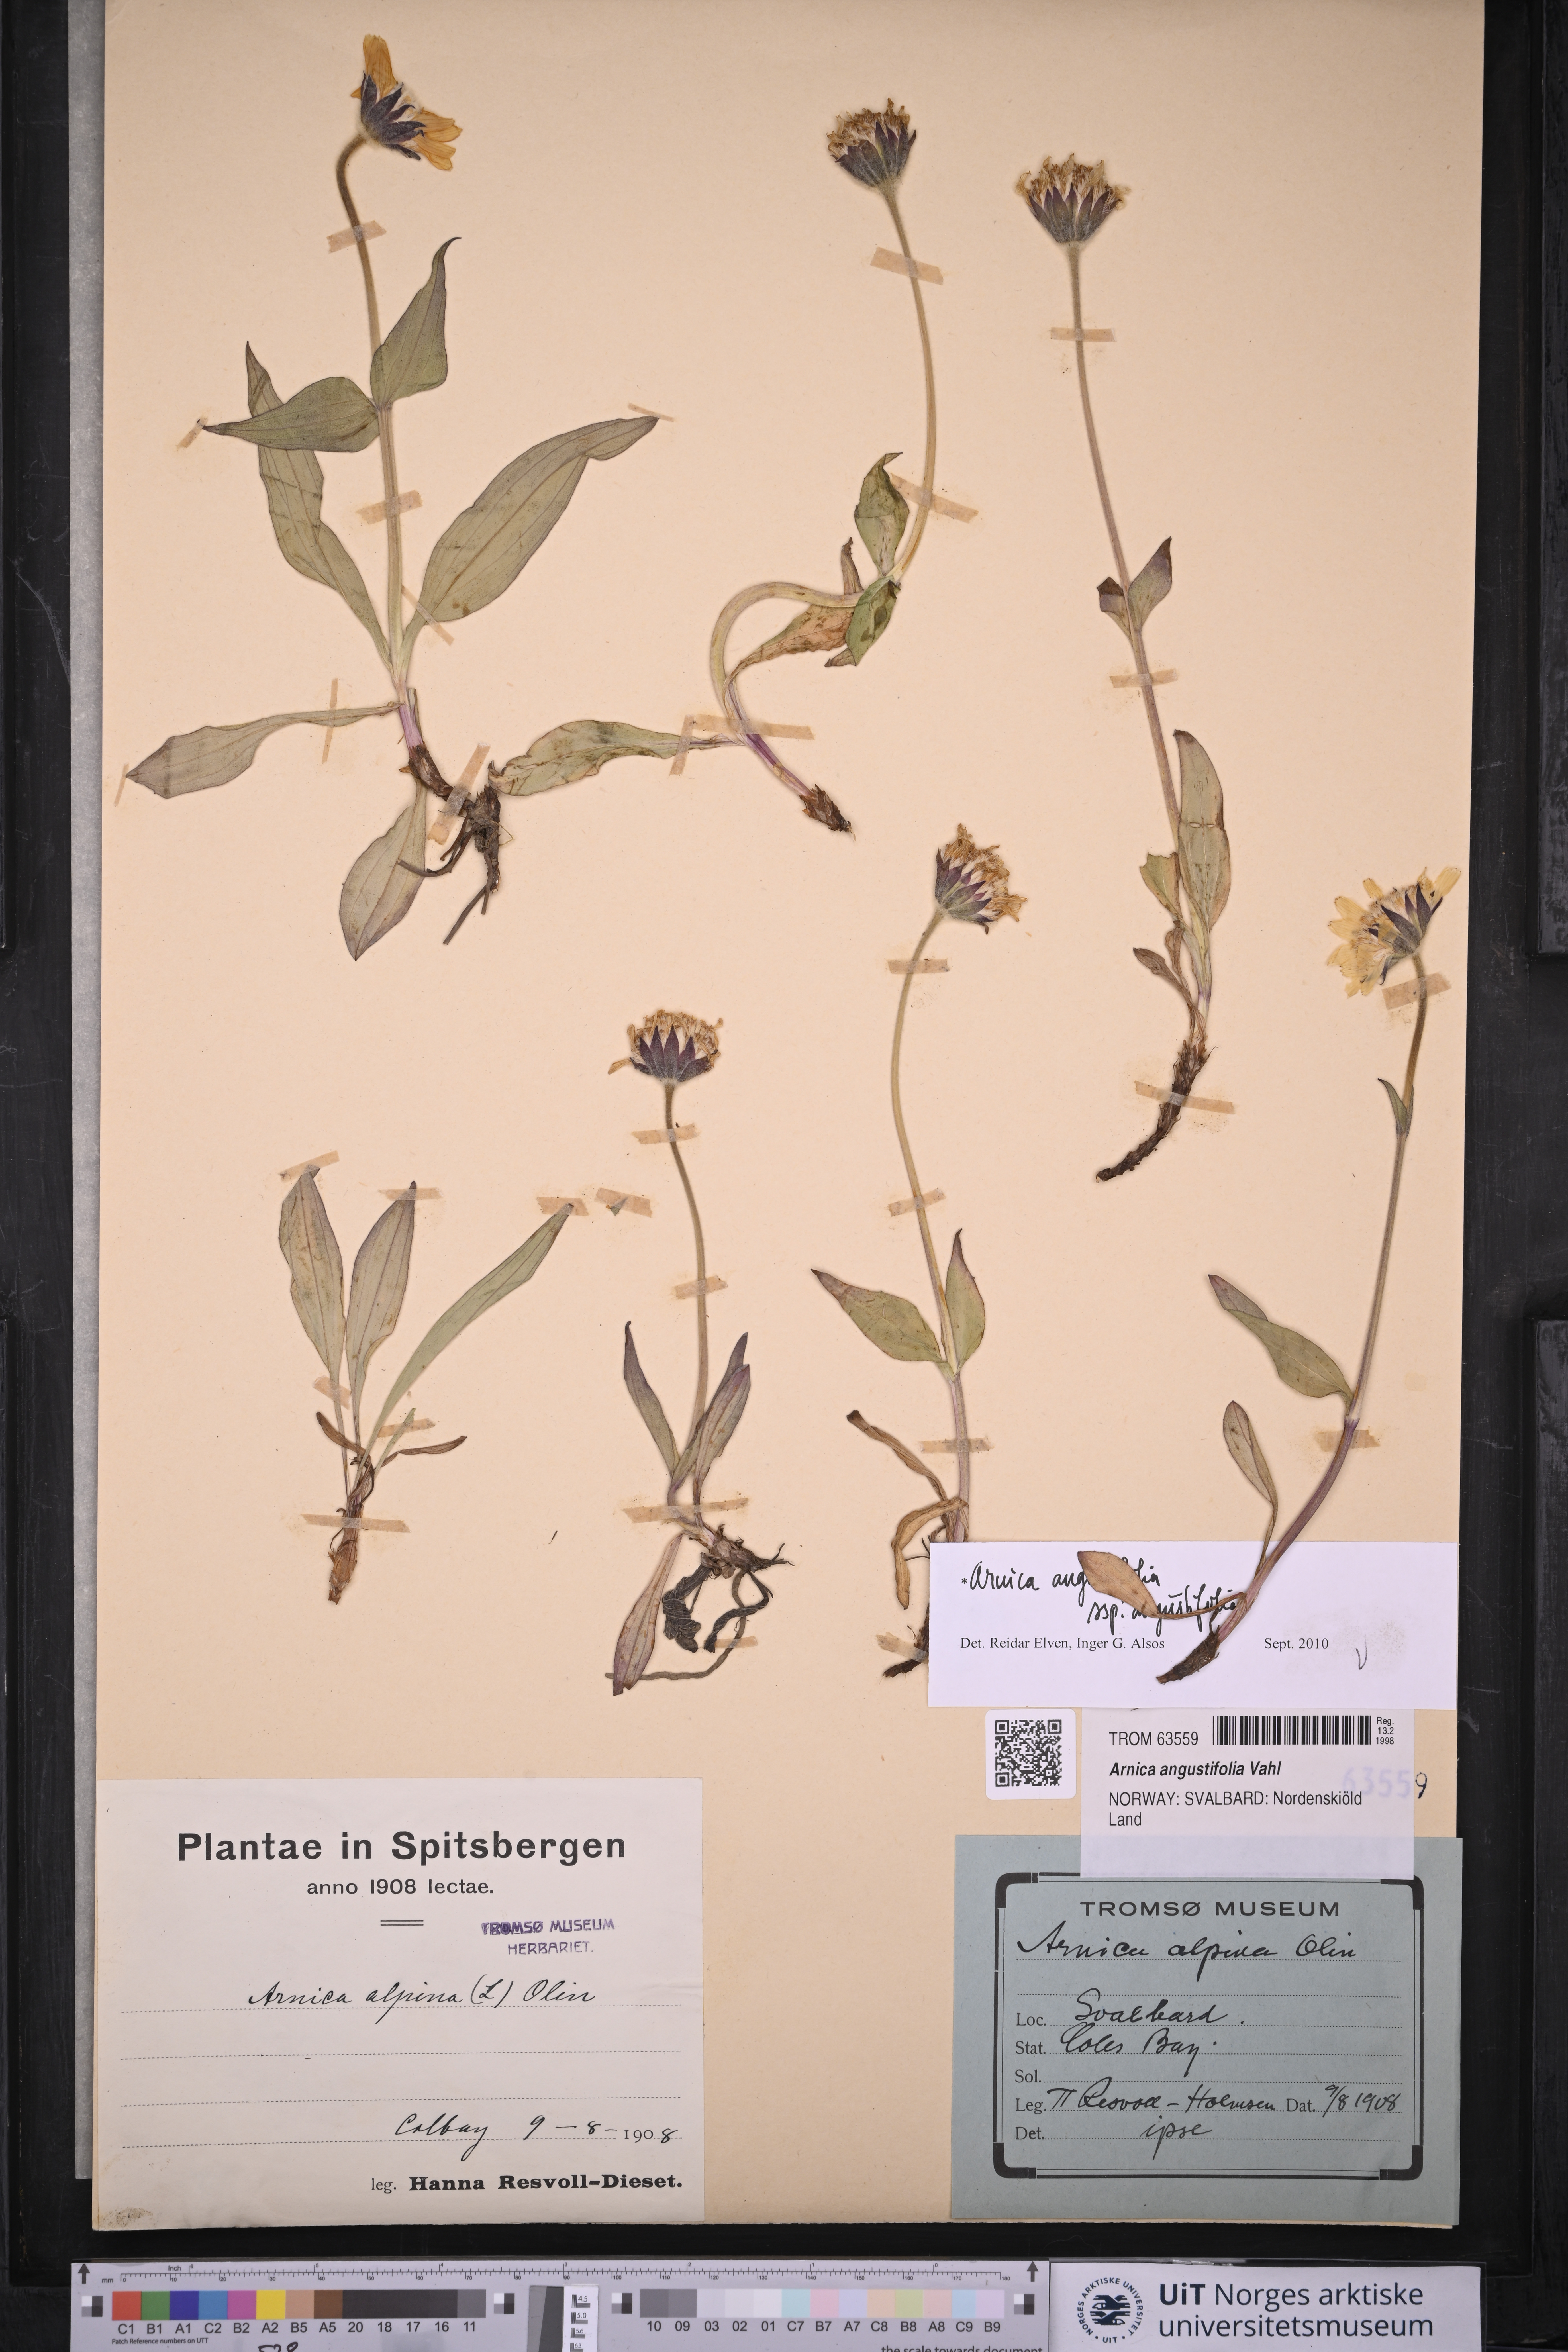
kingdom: Plantae
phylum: Tracheophyta
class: Magnoliopsida
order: Asterales
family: Asteraceae
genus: Arnica
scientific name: Arnica angustifolia
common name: Arctic arnica
